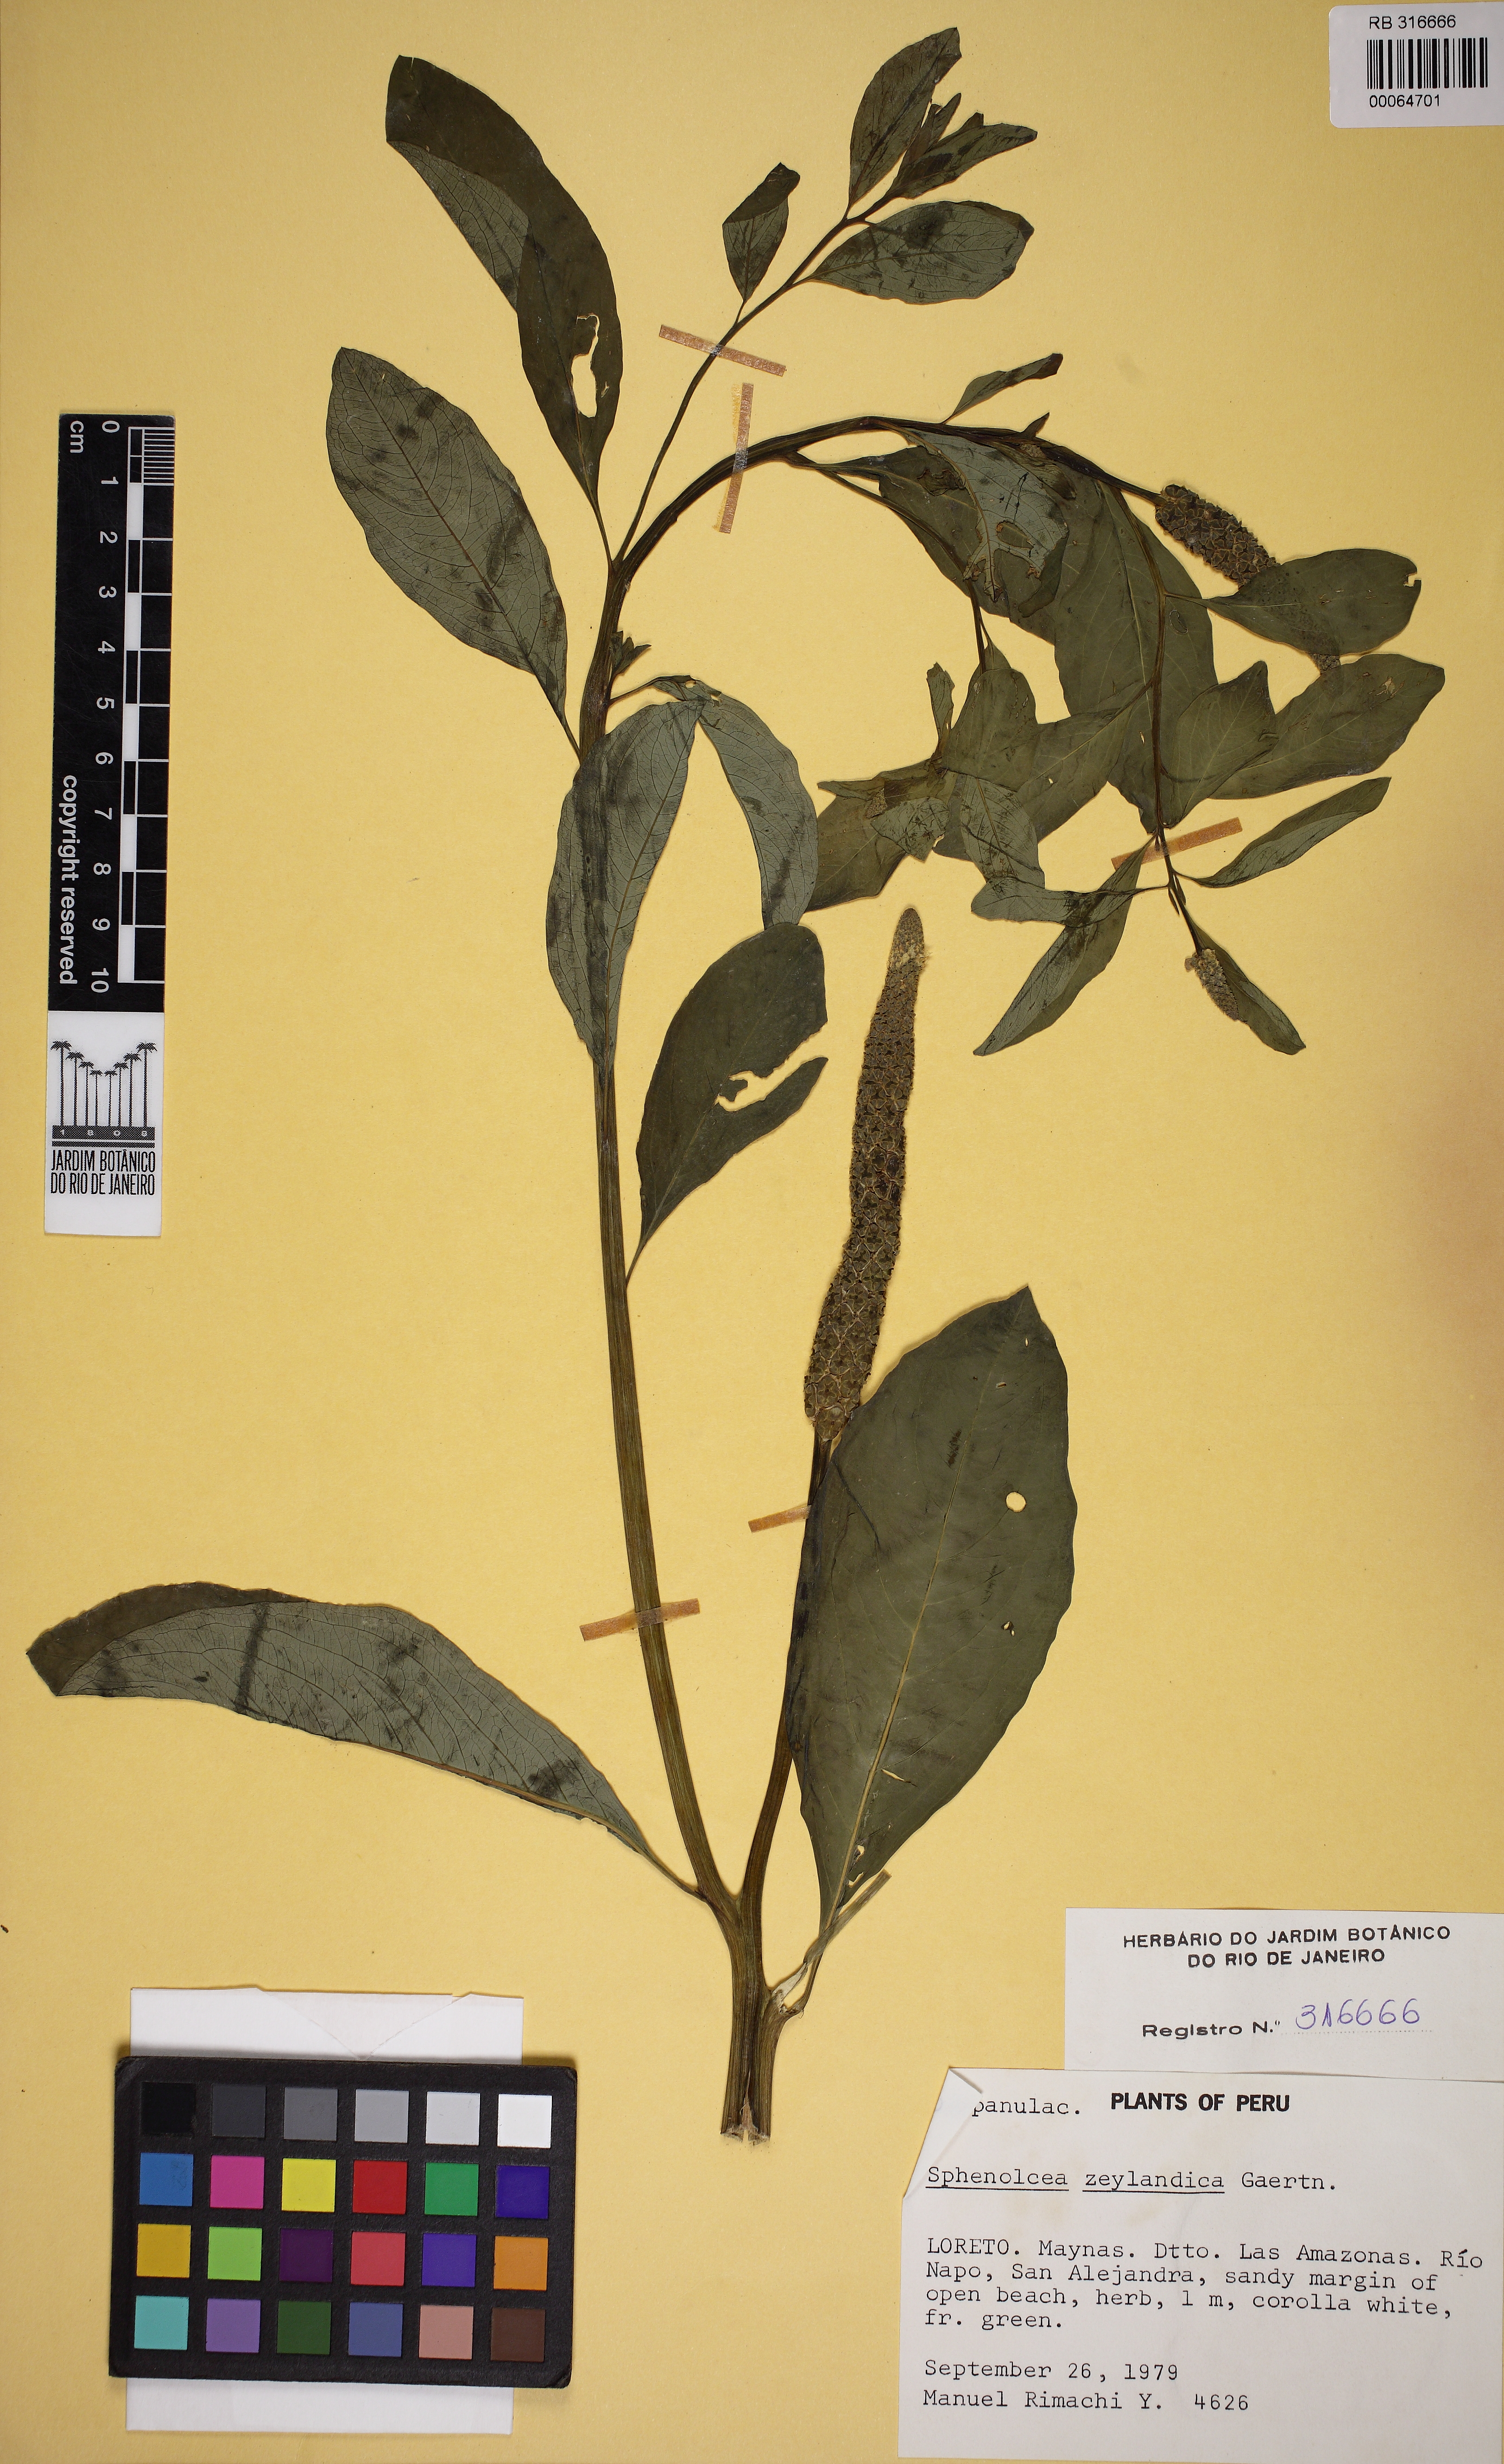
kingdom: Plantae
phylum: Tracheophyta
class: Magnoliopsida
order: Solanales
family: Sphenocleaceae
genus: Sphenoclea
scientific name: Sphenoclea zeylanica
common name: Chickenspike
